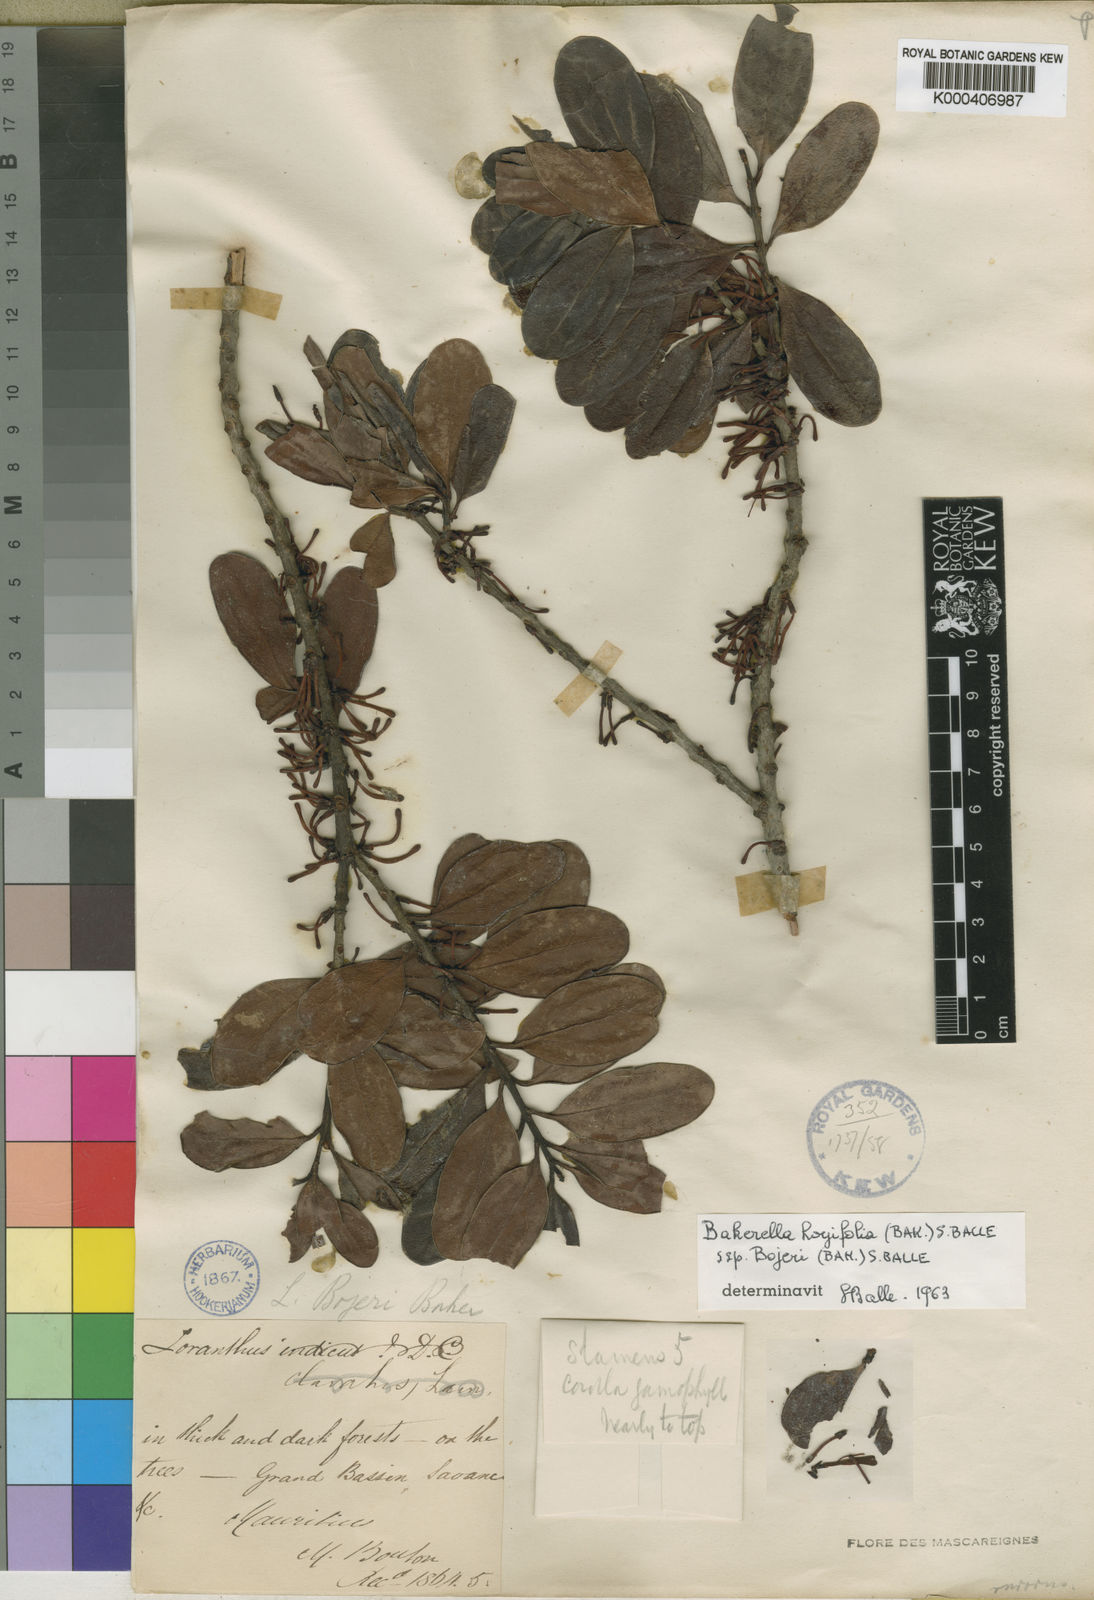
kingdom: Plantae
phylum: Tracheophyta
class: Magnoliopsida
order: Santalales
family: Loranthaceae
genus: Bakerella
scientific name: Bakerella hoyifolia
